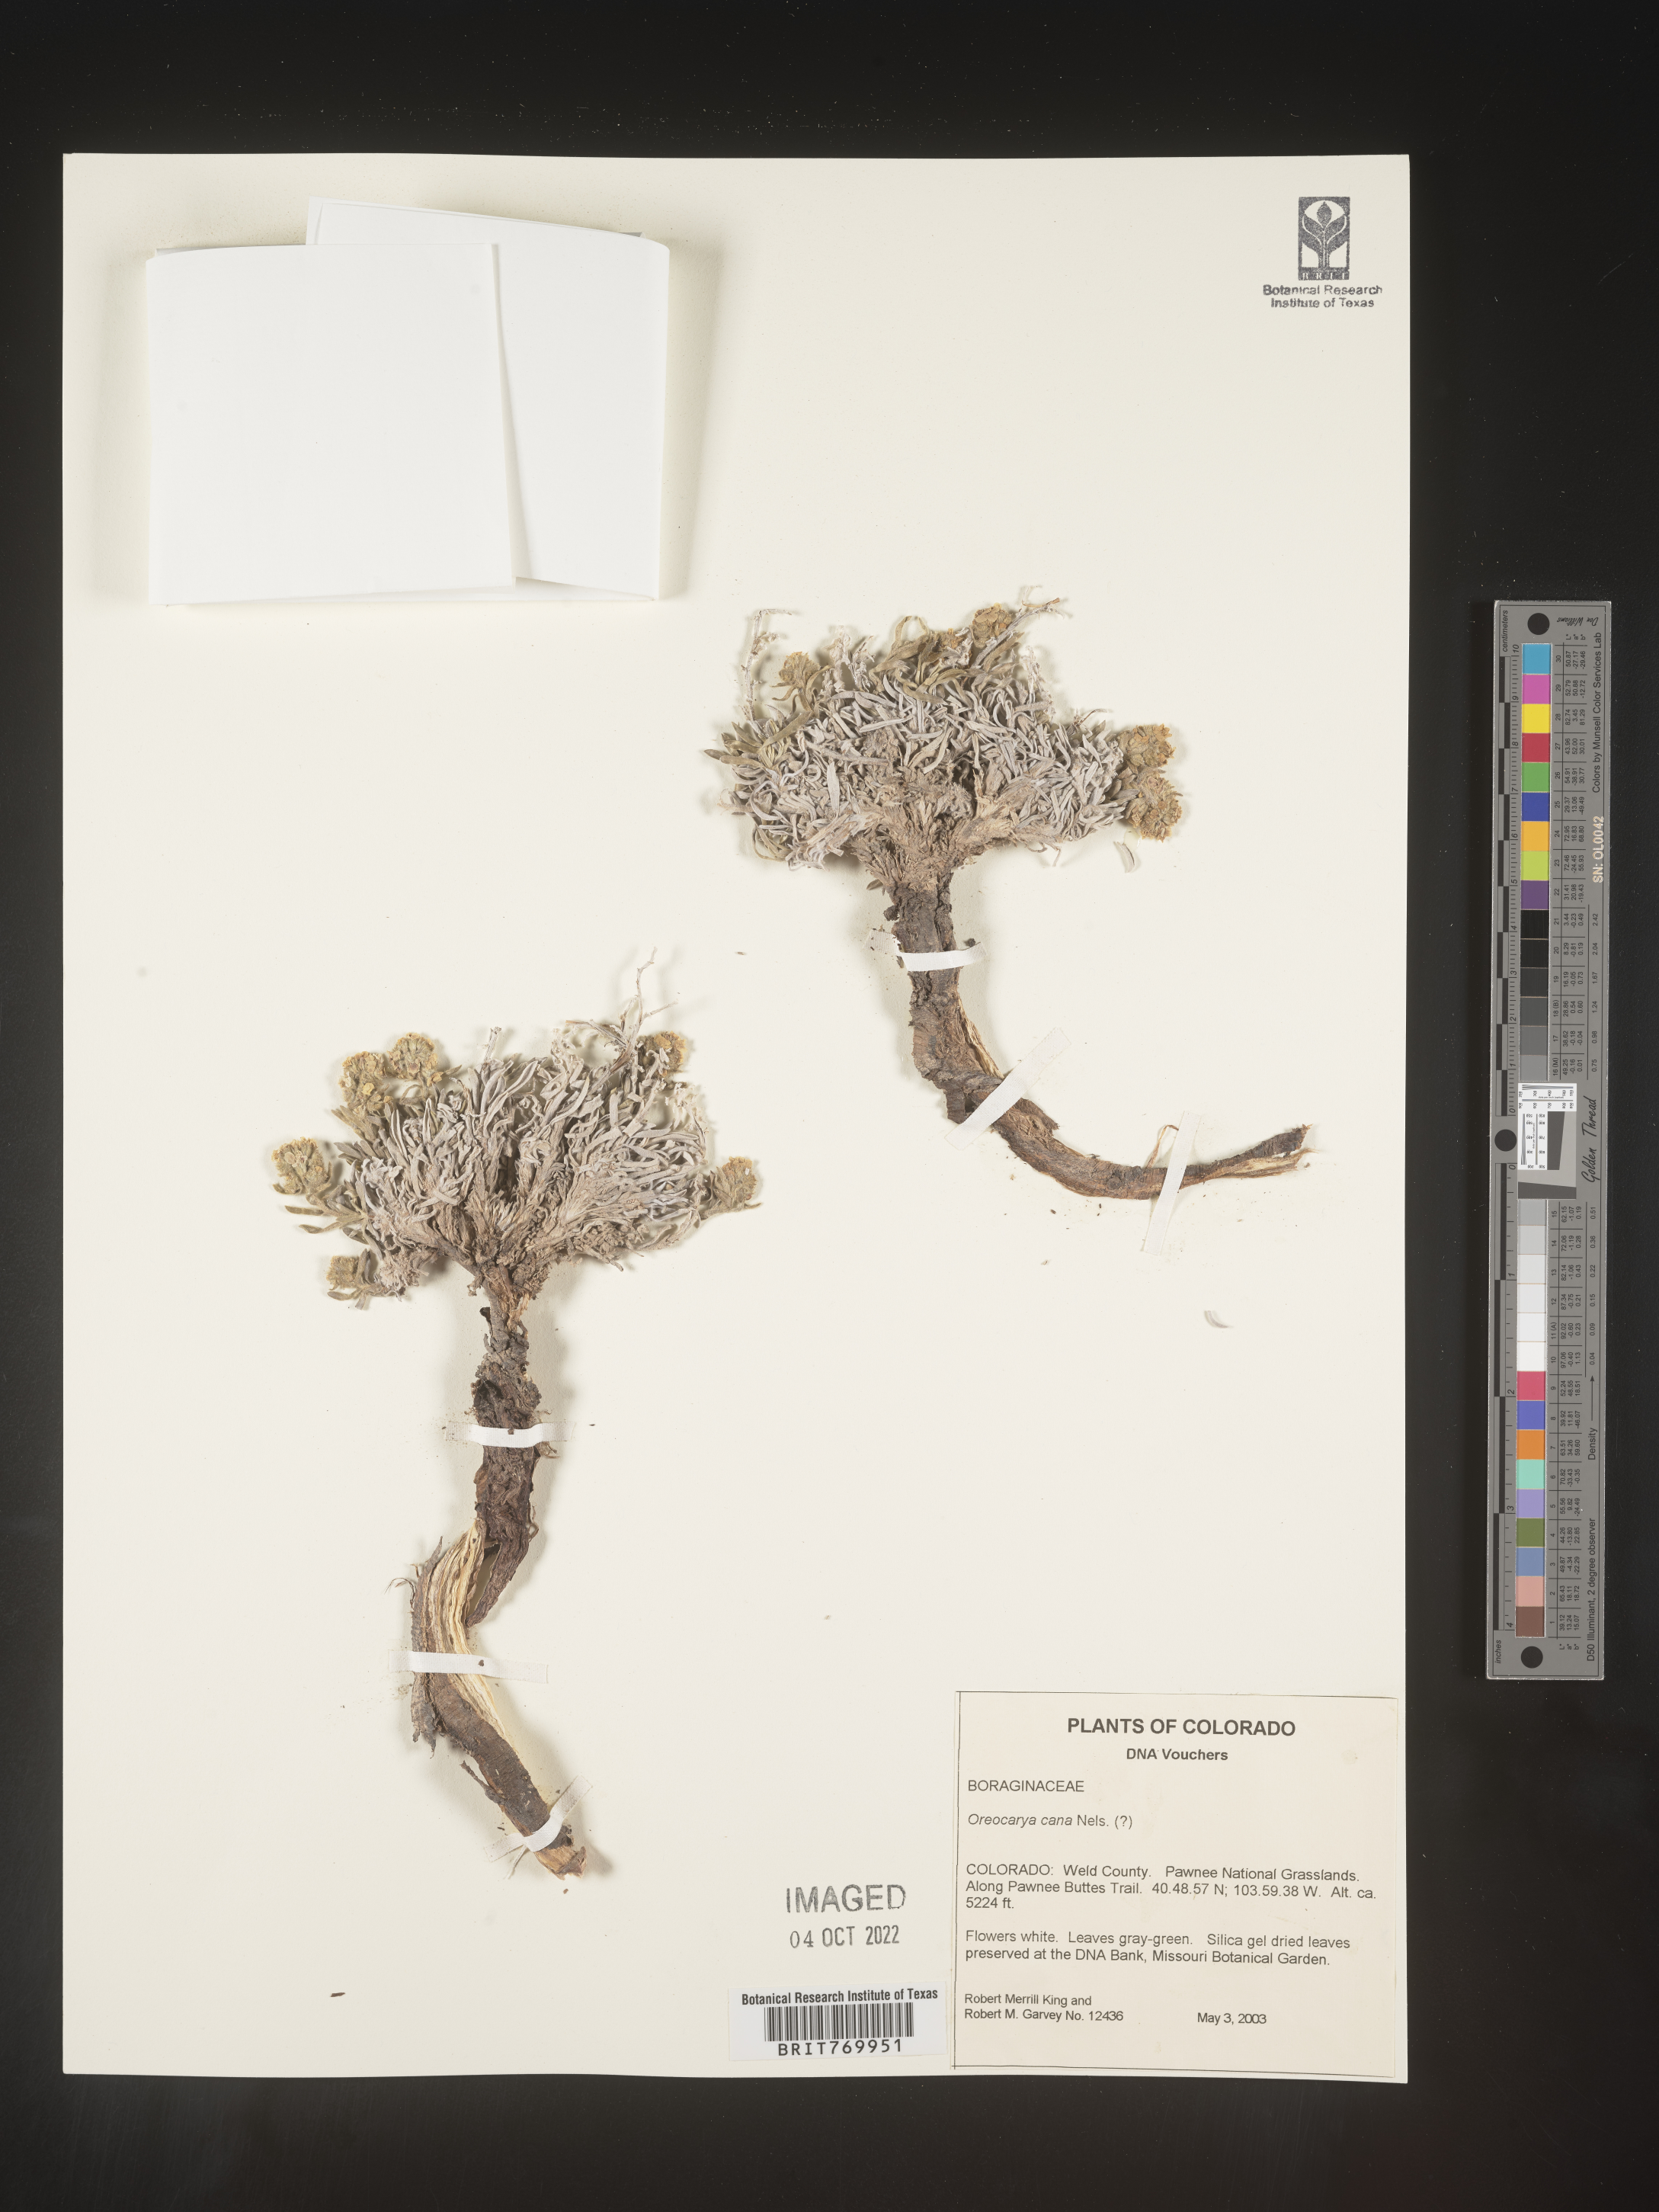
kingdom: Plantae
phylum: Tracheophyta
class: Magnoliopsida
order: Boraginales
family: Boraginaceae
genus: Oreocarya
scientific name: Oreocarya
